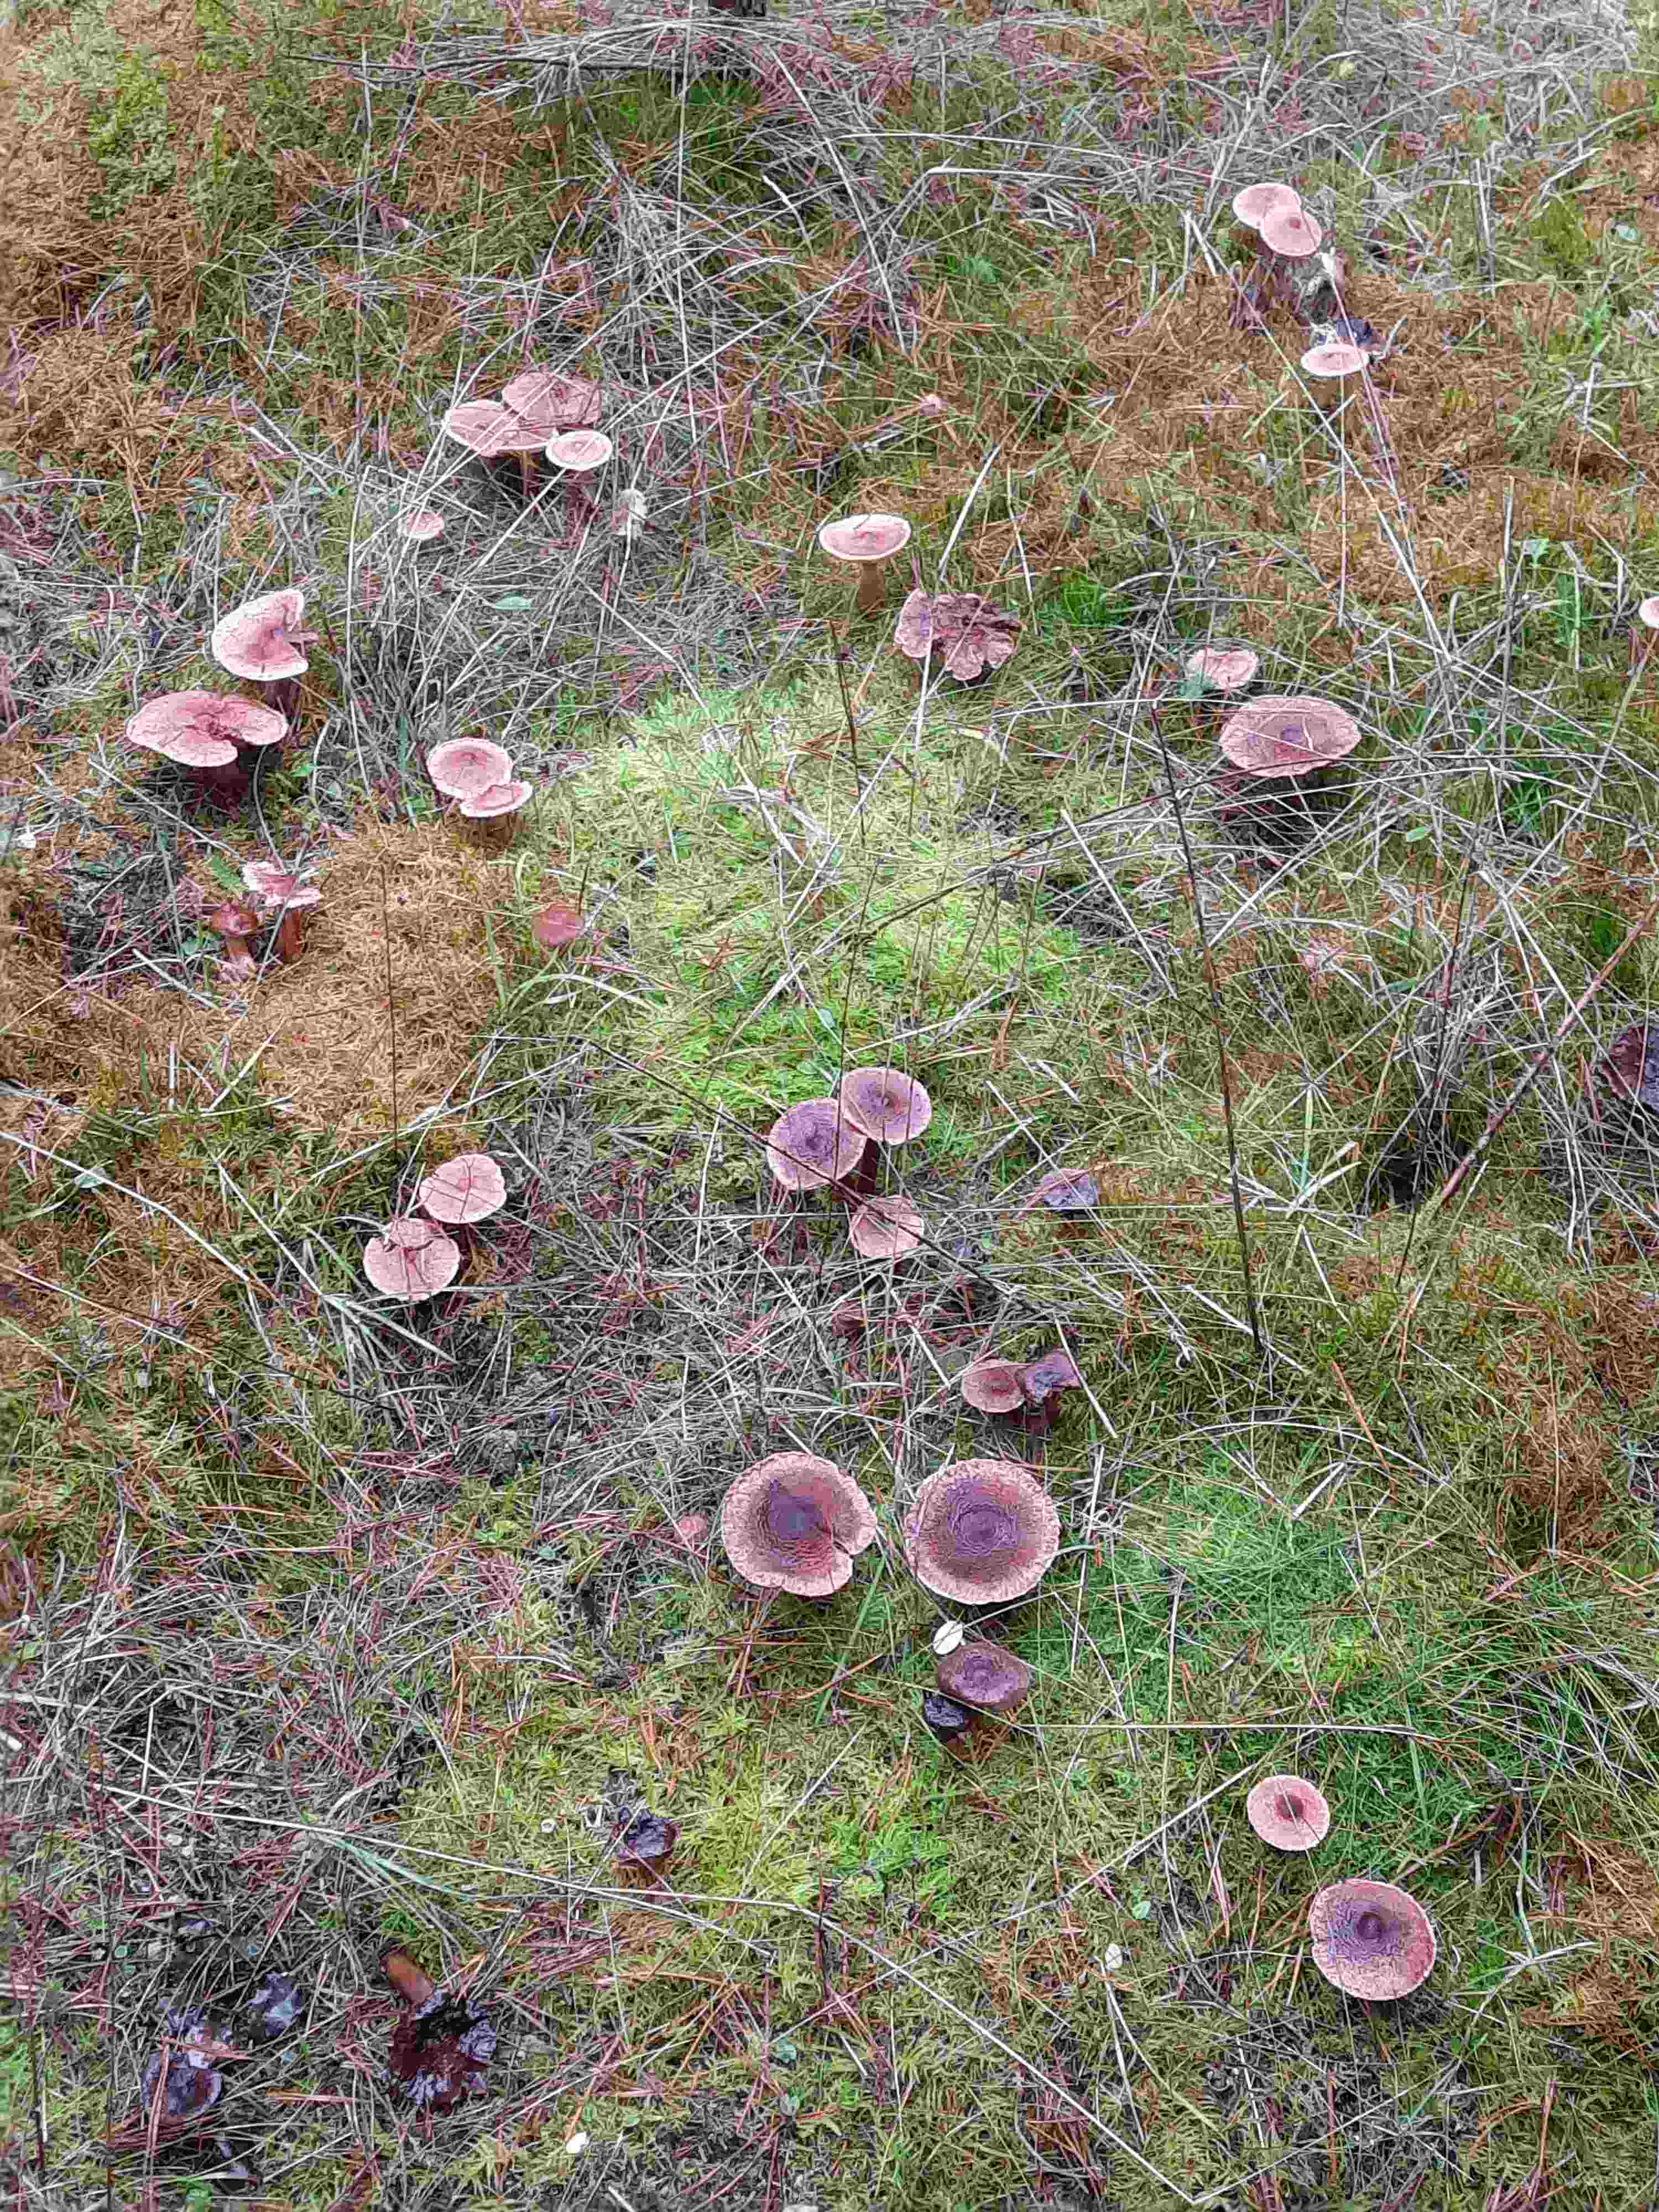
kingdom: Fungi
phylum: Basidiomycota
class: Agaricomycetes
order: Agaricales
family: Tricholomataceae
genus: Tricholoma
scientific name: Tricholoma vaccinum
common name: ko-ridderhat
